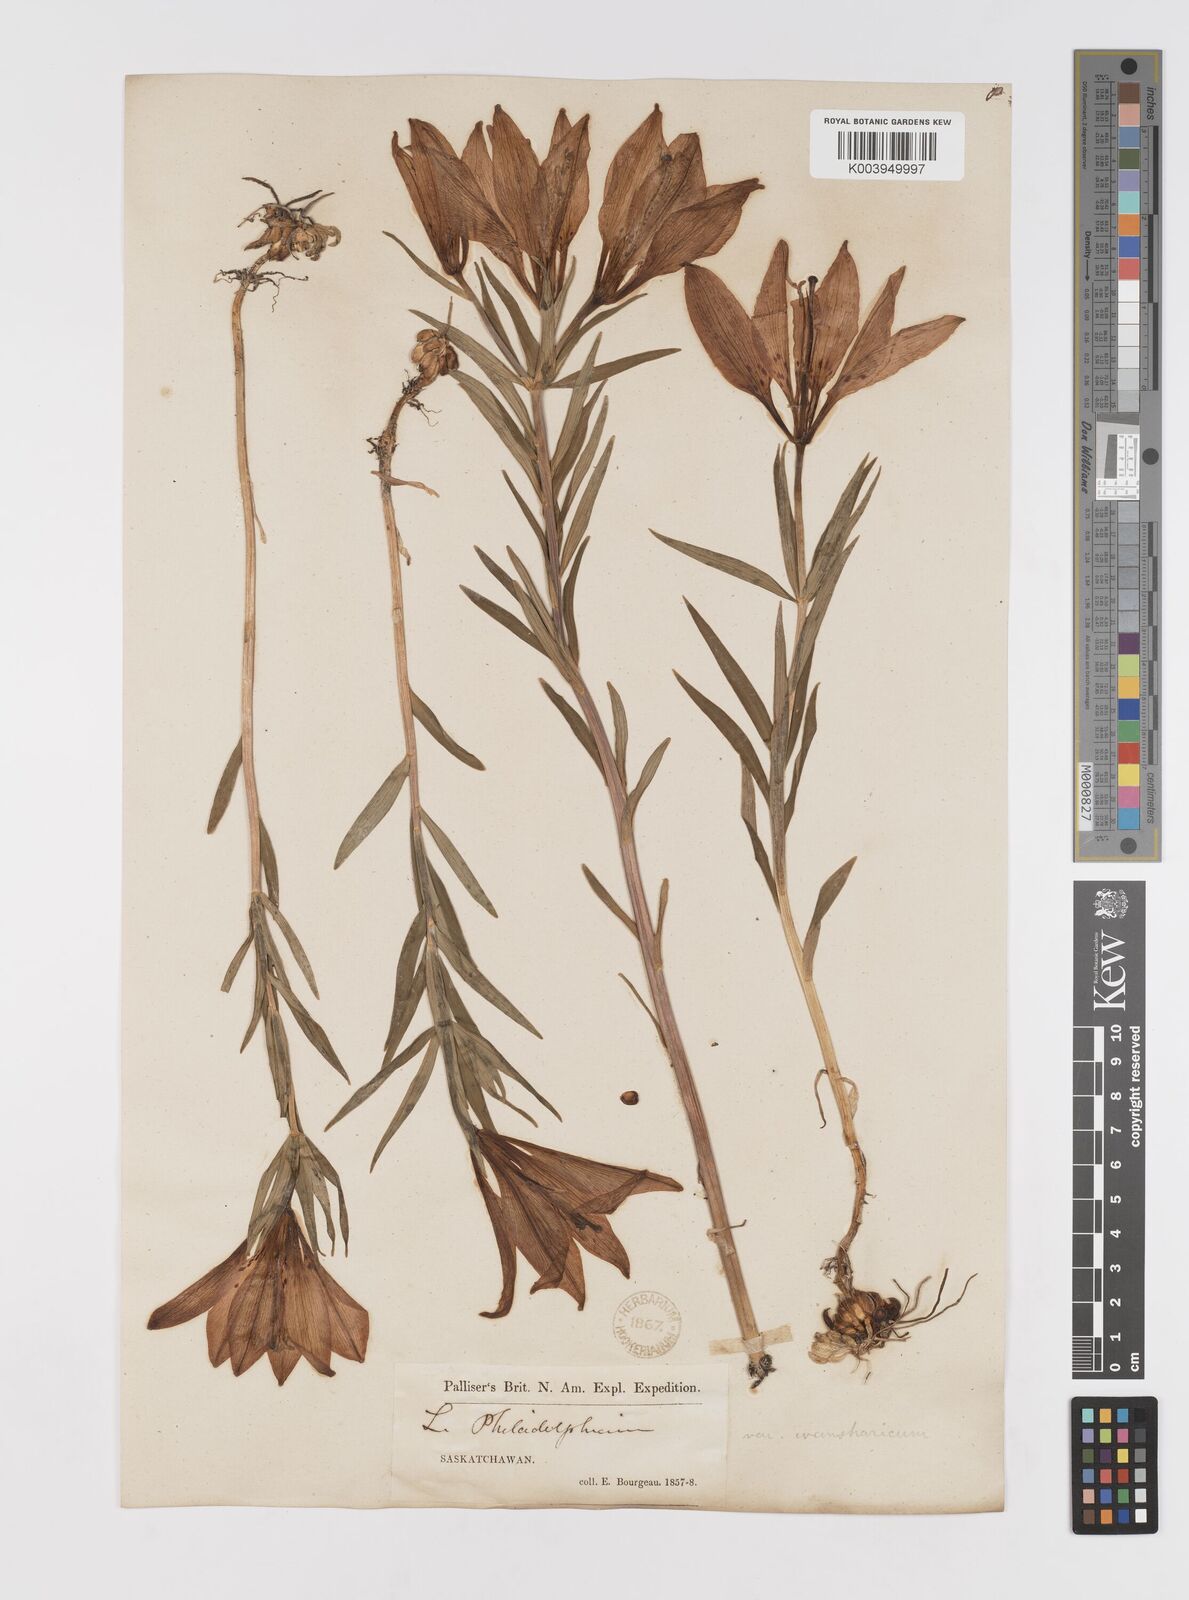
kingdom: Plantae
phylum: Tracheophyta
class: Liliopsida
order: Liliales
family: Liliaceae
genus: Lilium
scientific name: Lilium philadelphicum
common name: Red lily
